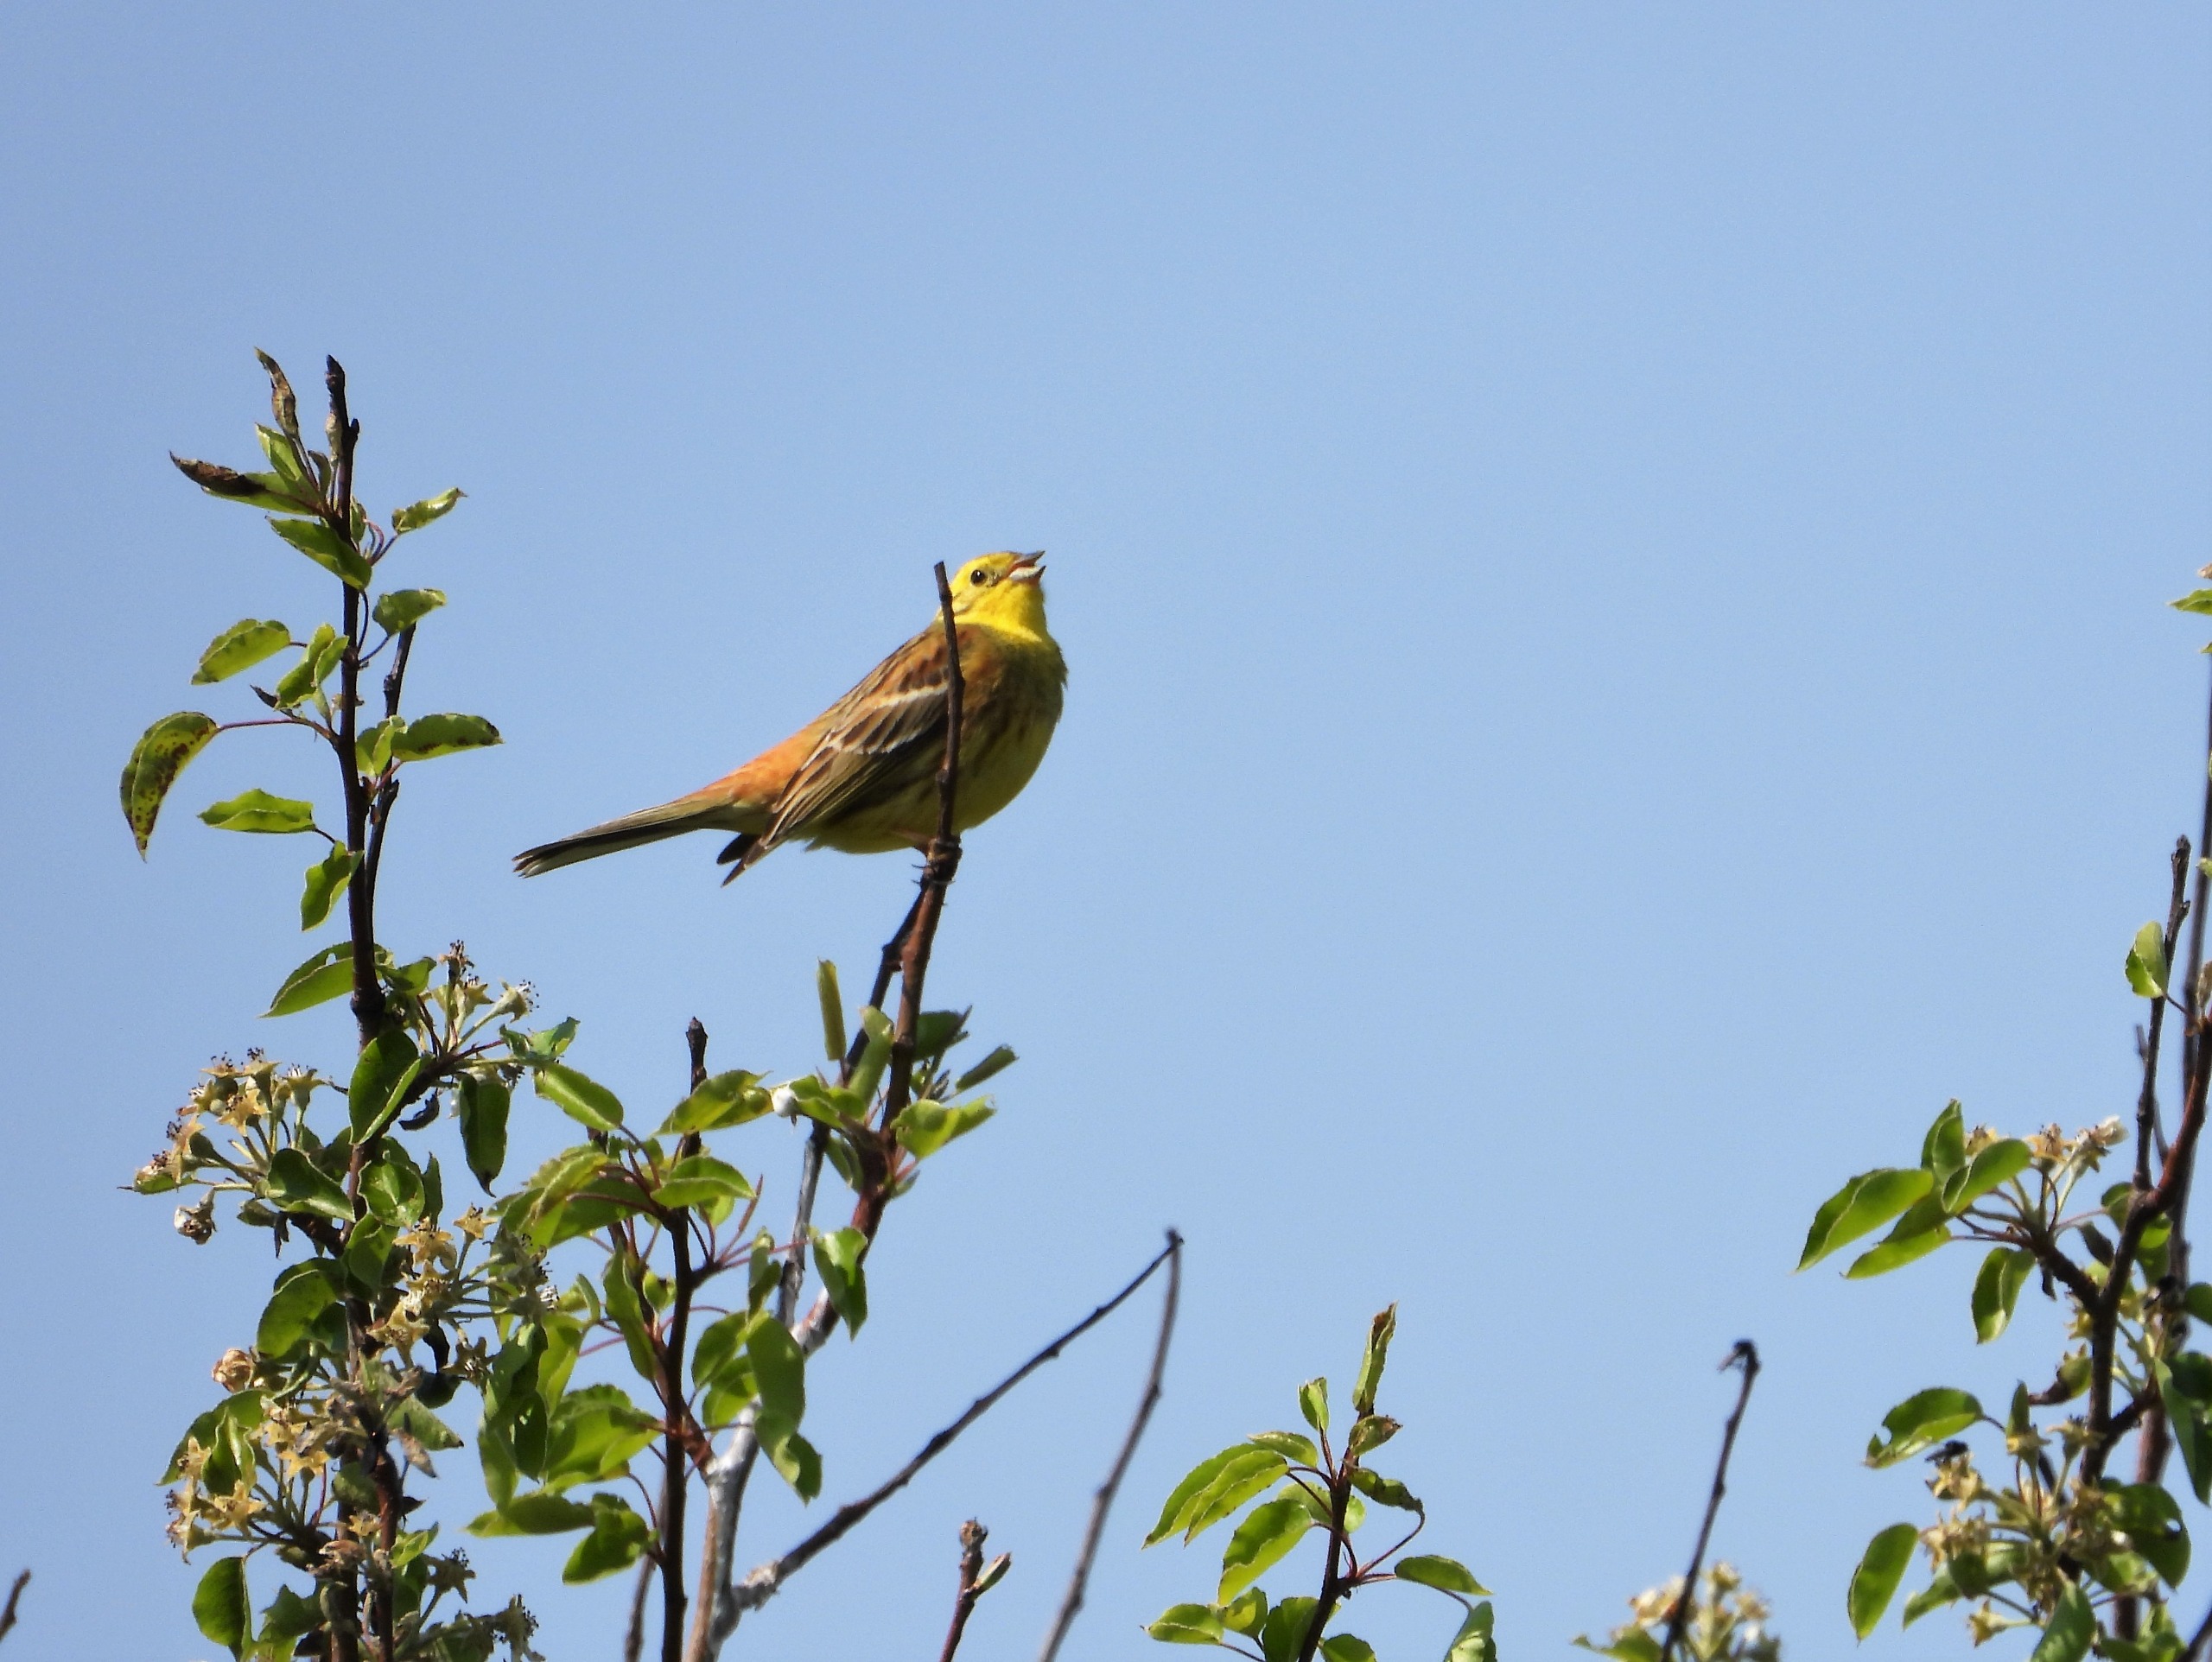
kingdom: Animalia
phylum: Chordata
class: Aves
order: Passeriformes
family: Emberizidae
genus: Emberiza
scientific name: Emberiza citrinella
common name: Gulspurv
